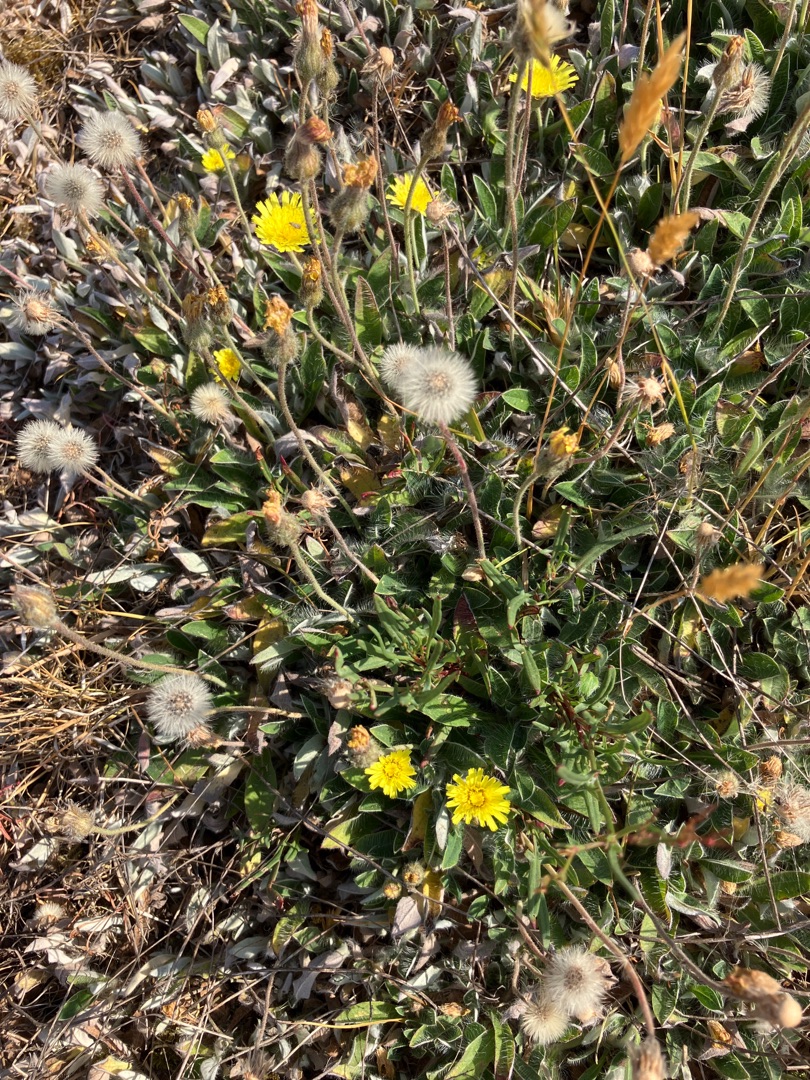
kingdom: Plantae
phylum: Tracheophyta
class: Magnoliopsida
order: Asterales
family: Asteraceae
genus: Pilosella
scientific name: Pilosella officinarum
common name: Håret høgeurt
